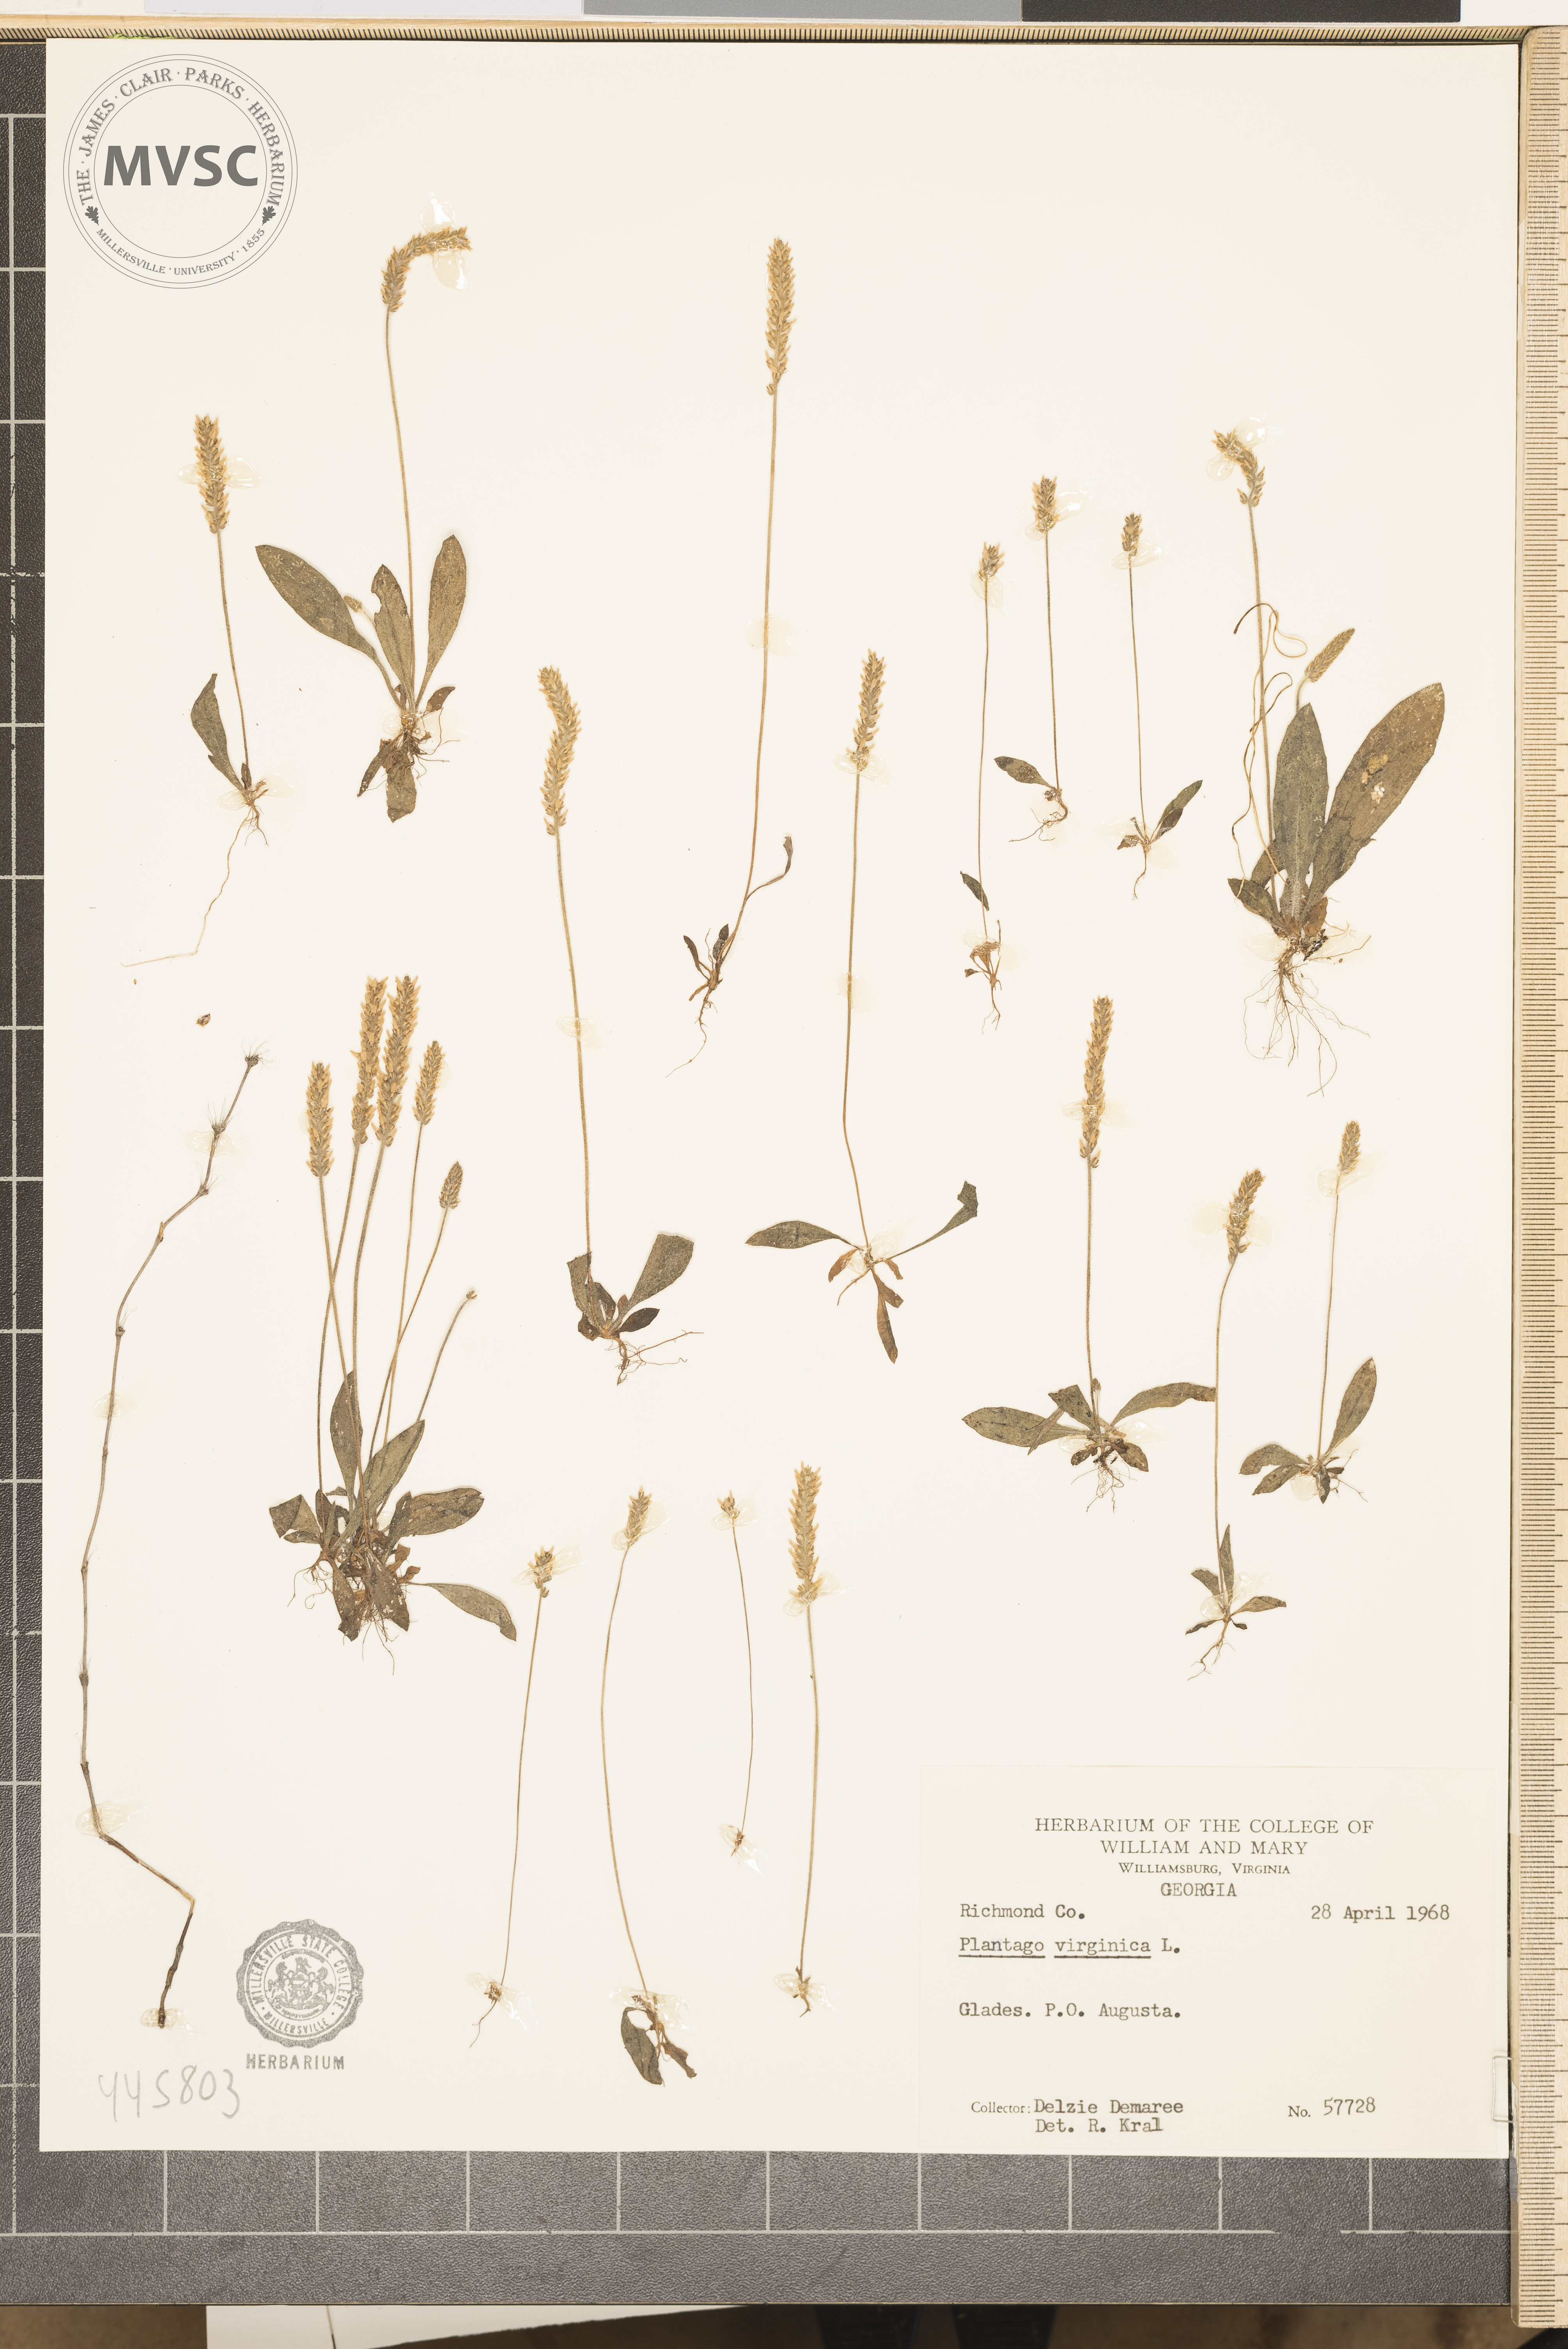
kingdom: Plantae
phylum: Tracheophyta
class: Magnoliopsida
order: Lamiales
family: Plantaginaceae
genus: Plantago
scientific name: Plantago virginica
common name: Hoary plantain
